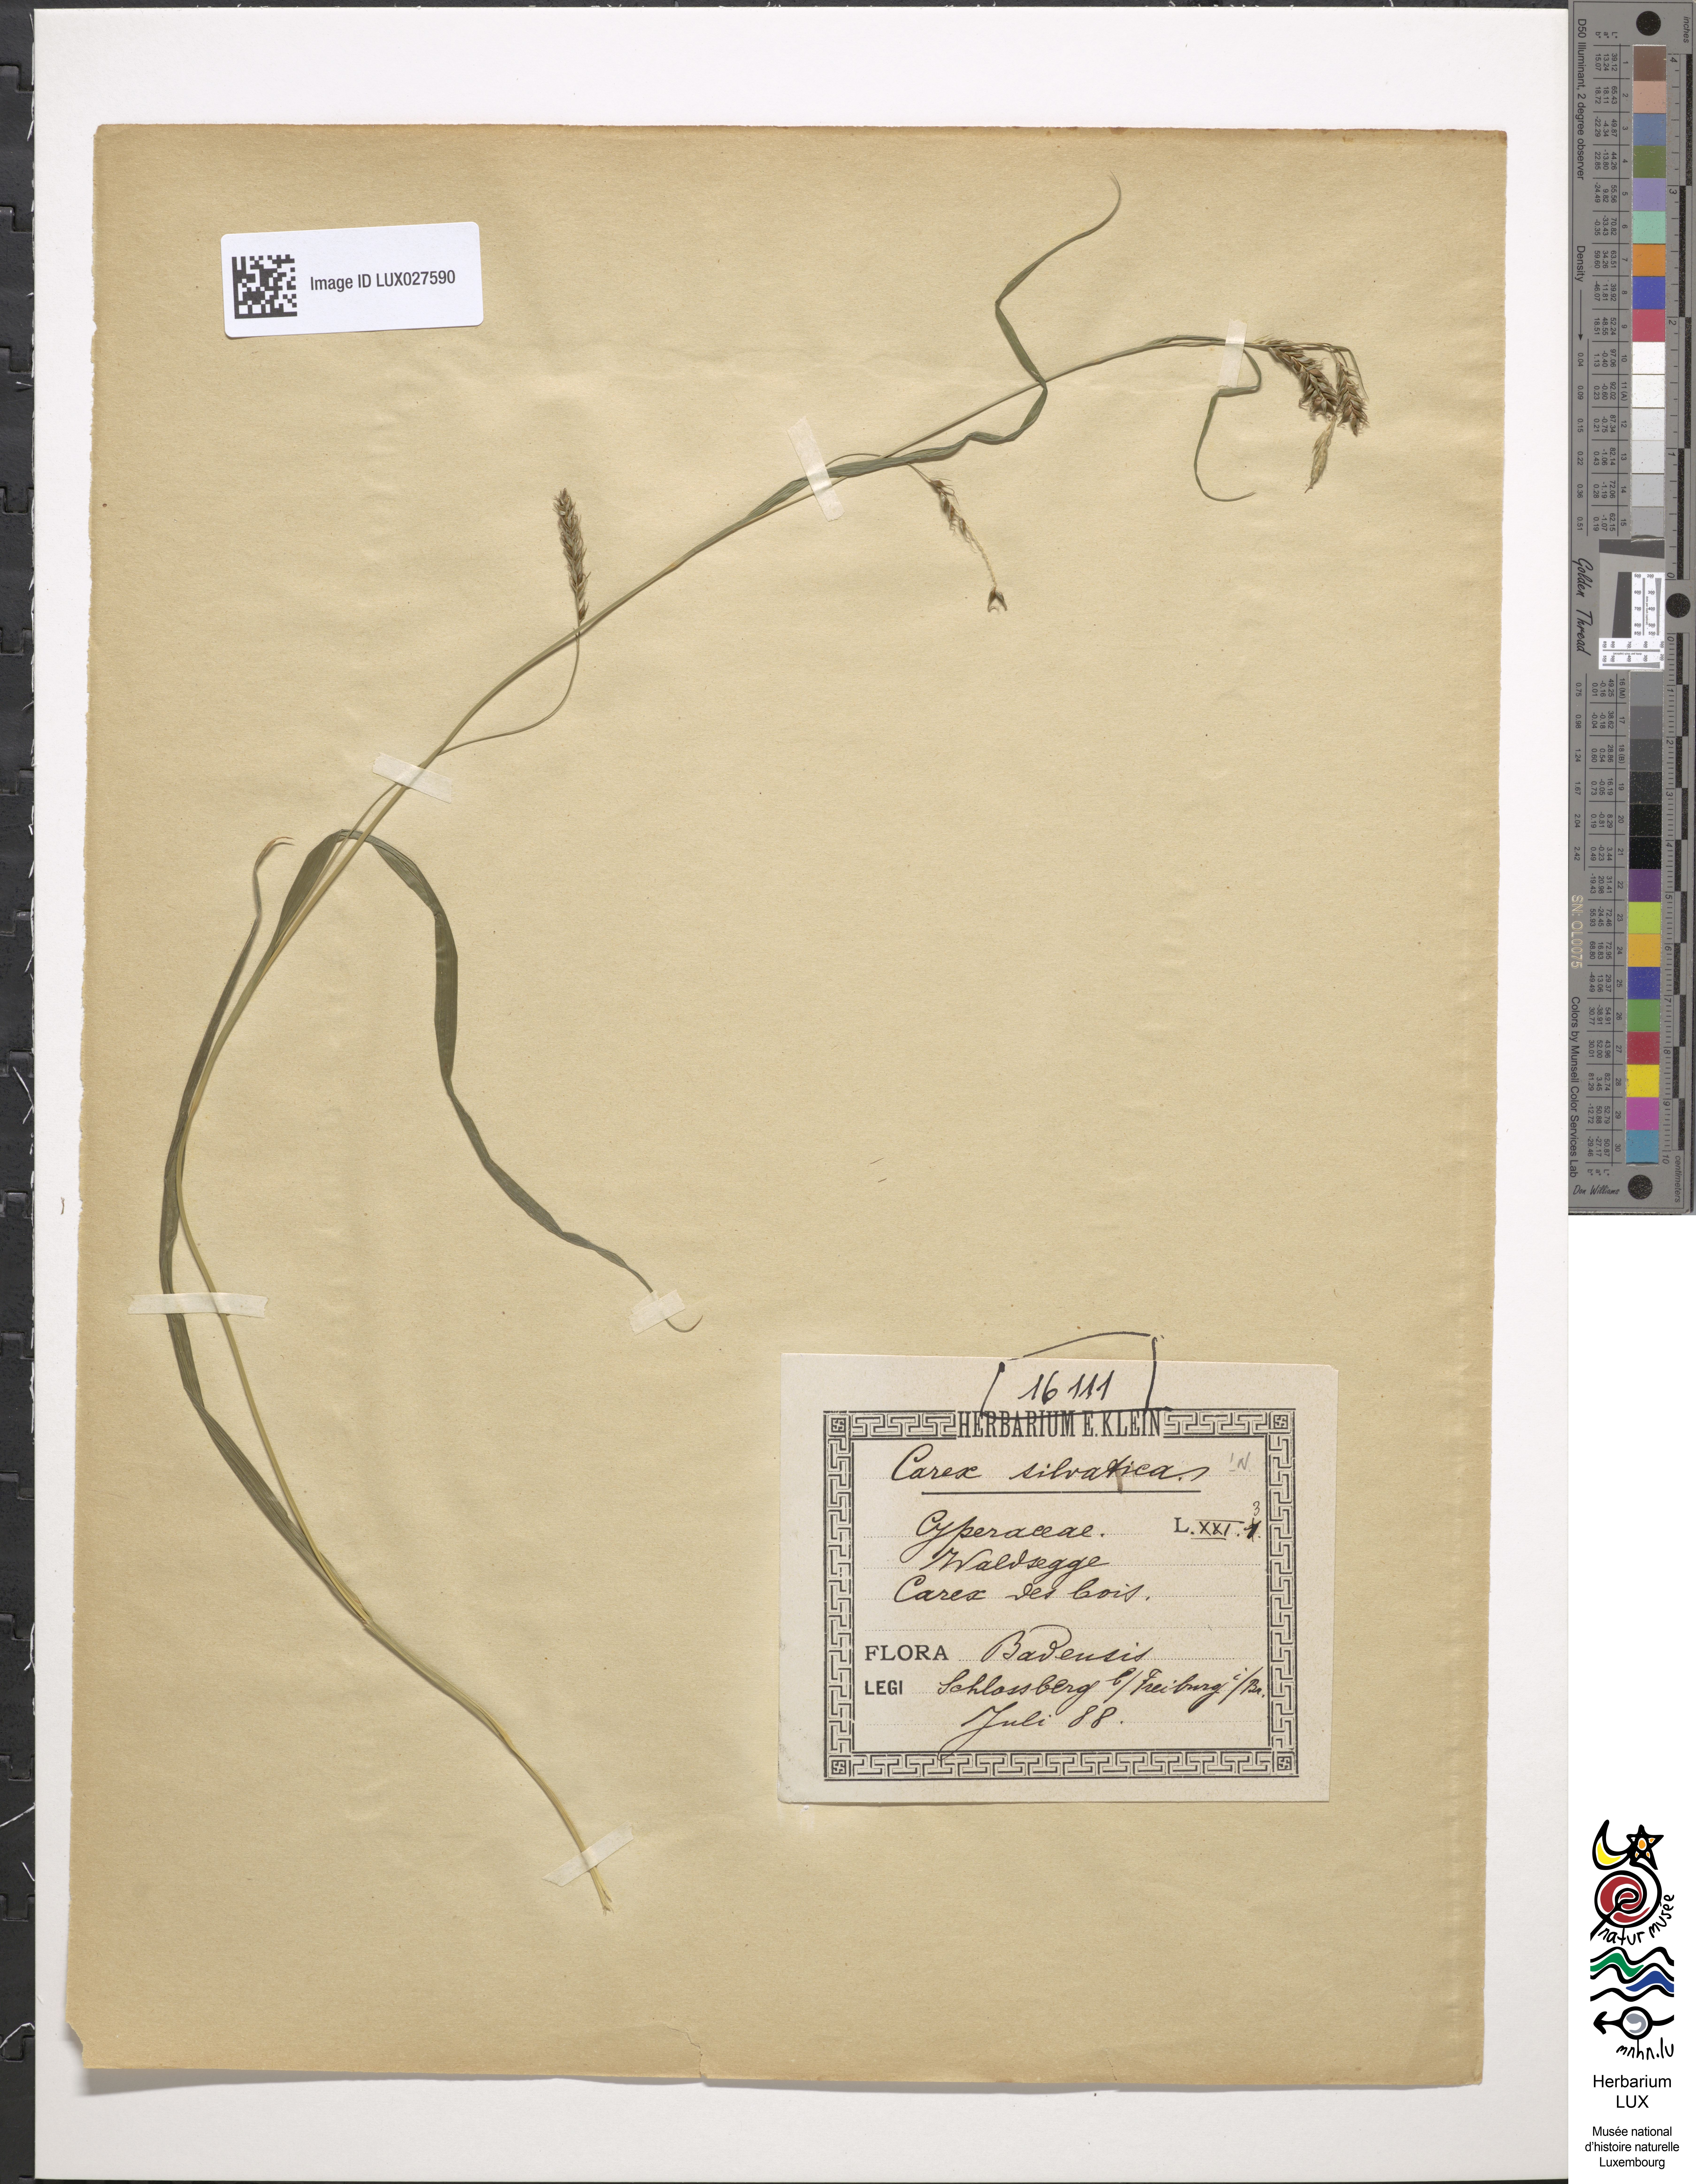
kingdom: Plantae
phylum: Tracheophyta
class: Liliopsida
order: Poales
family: Cyperaceae
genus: Carex
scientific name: Carex sylvatica
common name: Wood-sedge
